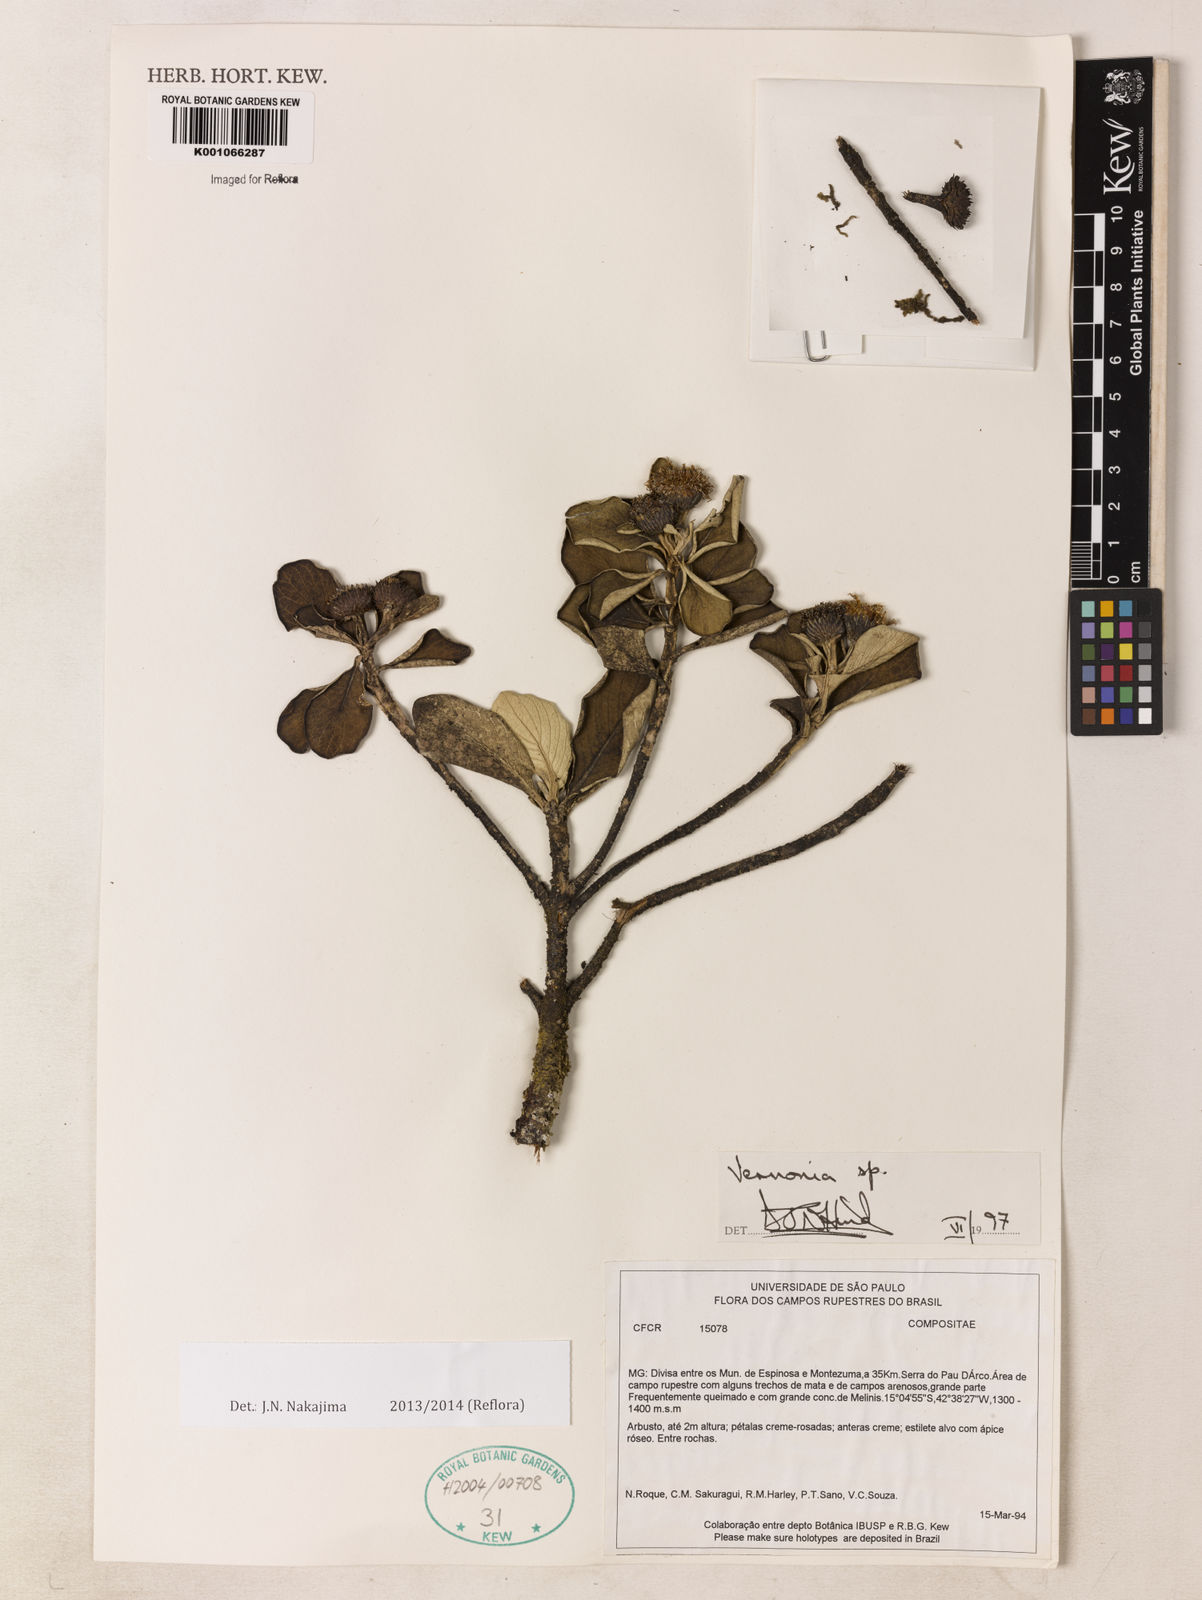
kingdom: Plantae
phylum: Tracheophyta
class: Magnoliopsida
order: Asterales
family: Asteraceae
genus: Vernonia
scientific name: Vernonia
